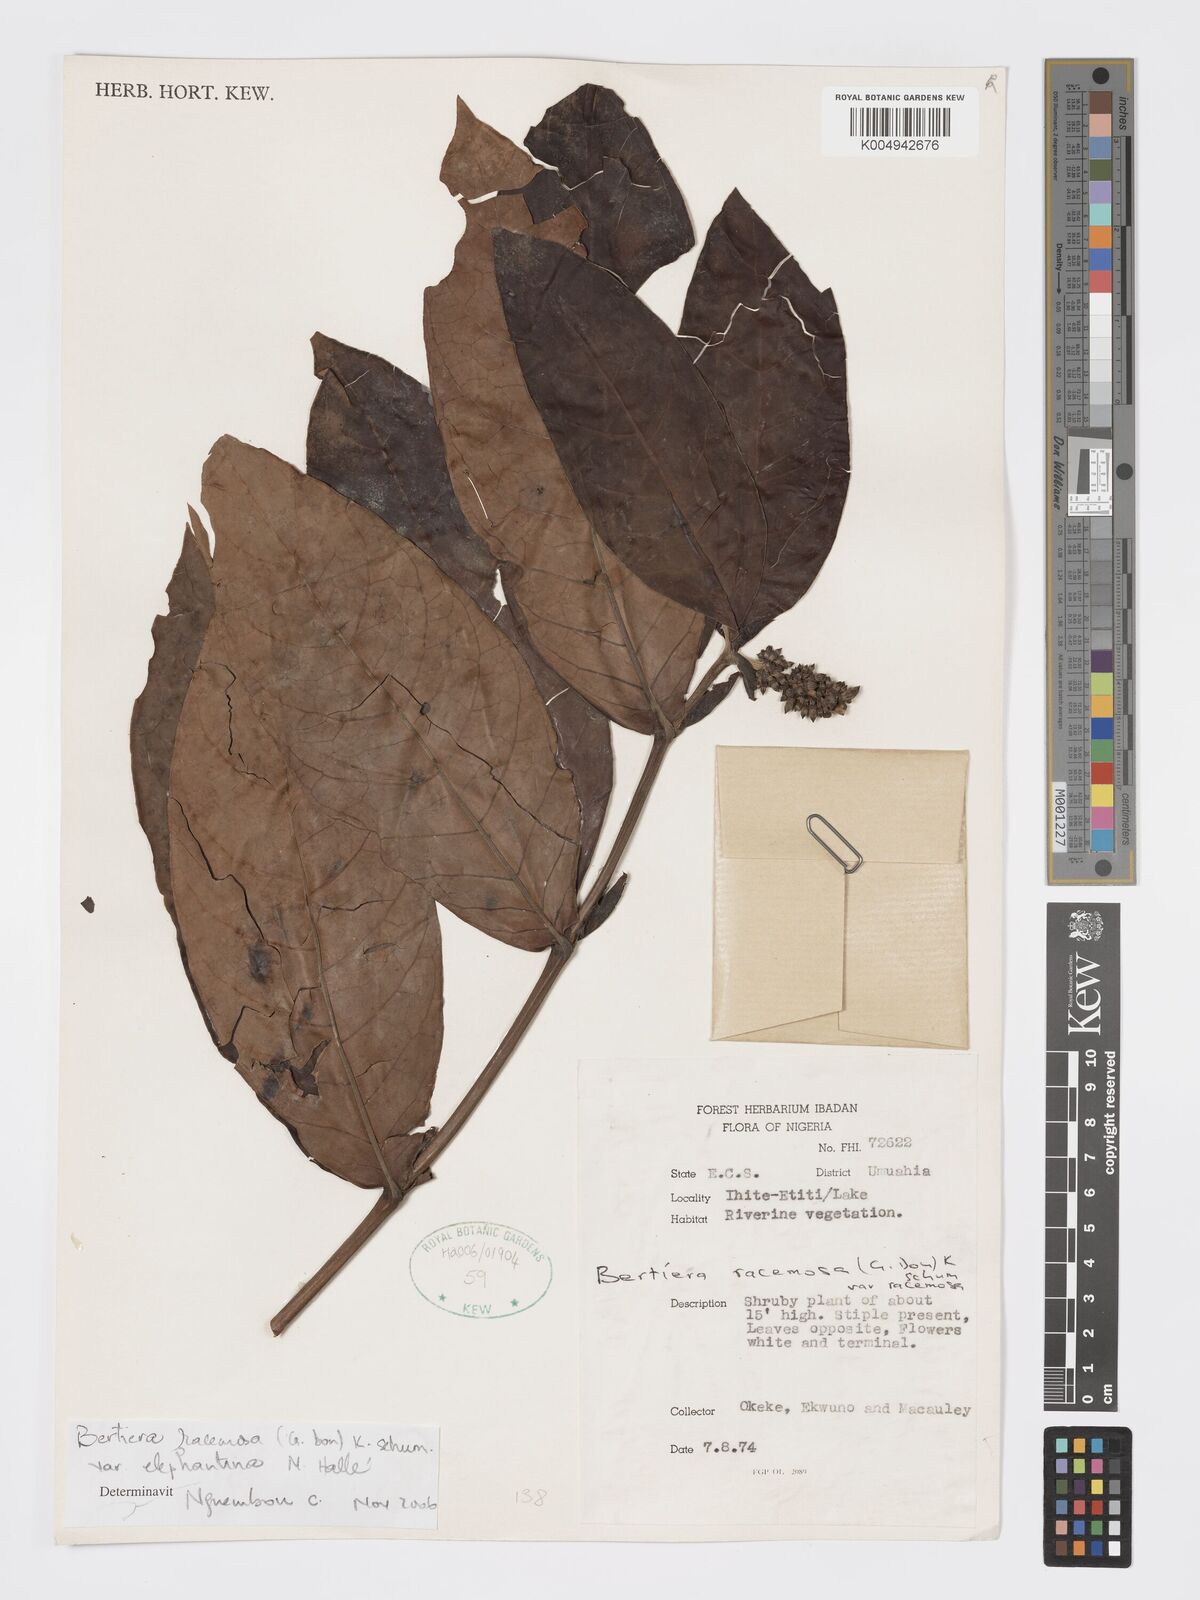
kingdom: Plantae
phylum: Tracheophyta
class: Magnoliopsida
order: Gentianales
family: Rubiaceae
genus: Bertiera
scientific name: Bertiera racemosa
